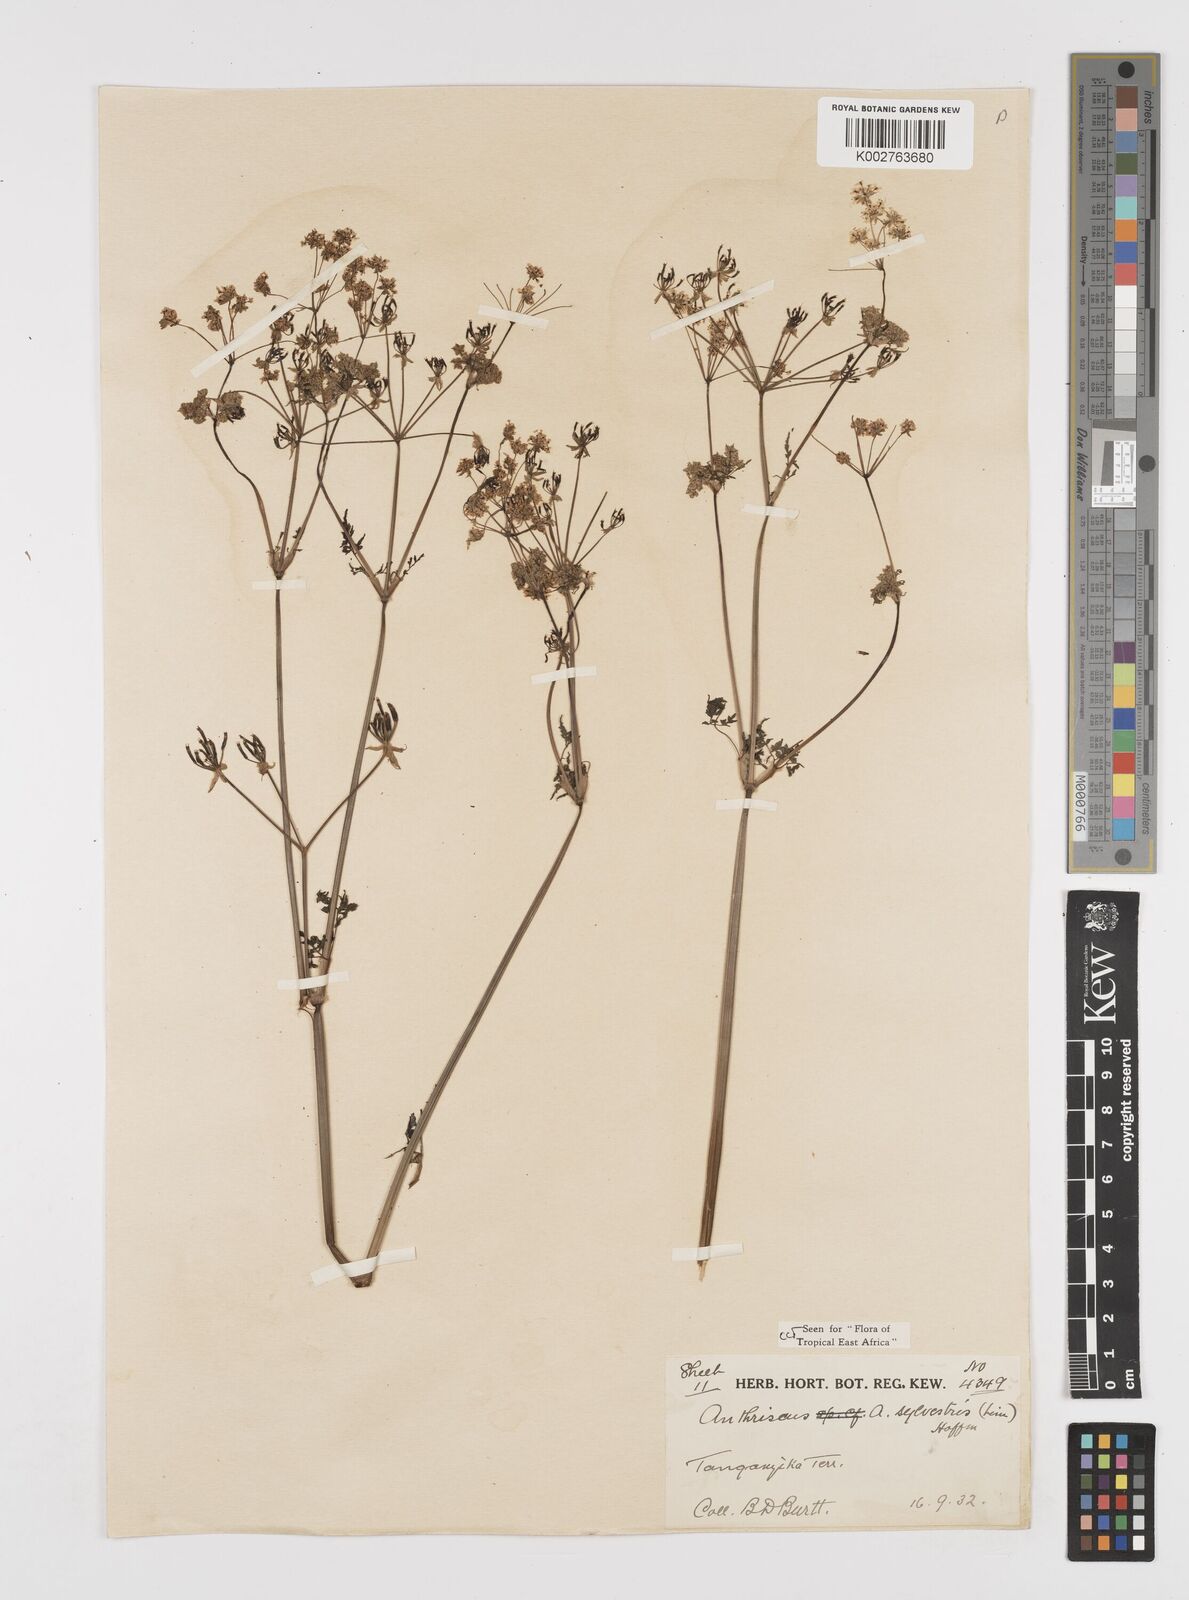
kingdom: Plantae
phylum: Tracheophyta
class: Magnoliopsida
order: Apiales
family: Apiaceae
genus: Anthriscus
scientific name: Anthriscus sylvestris
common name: Cow parsley
